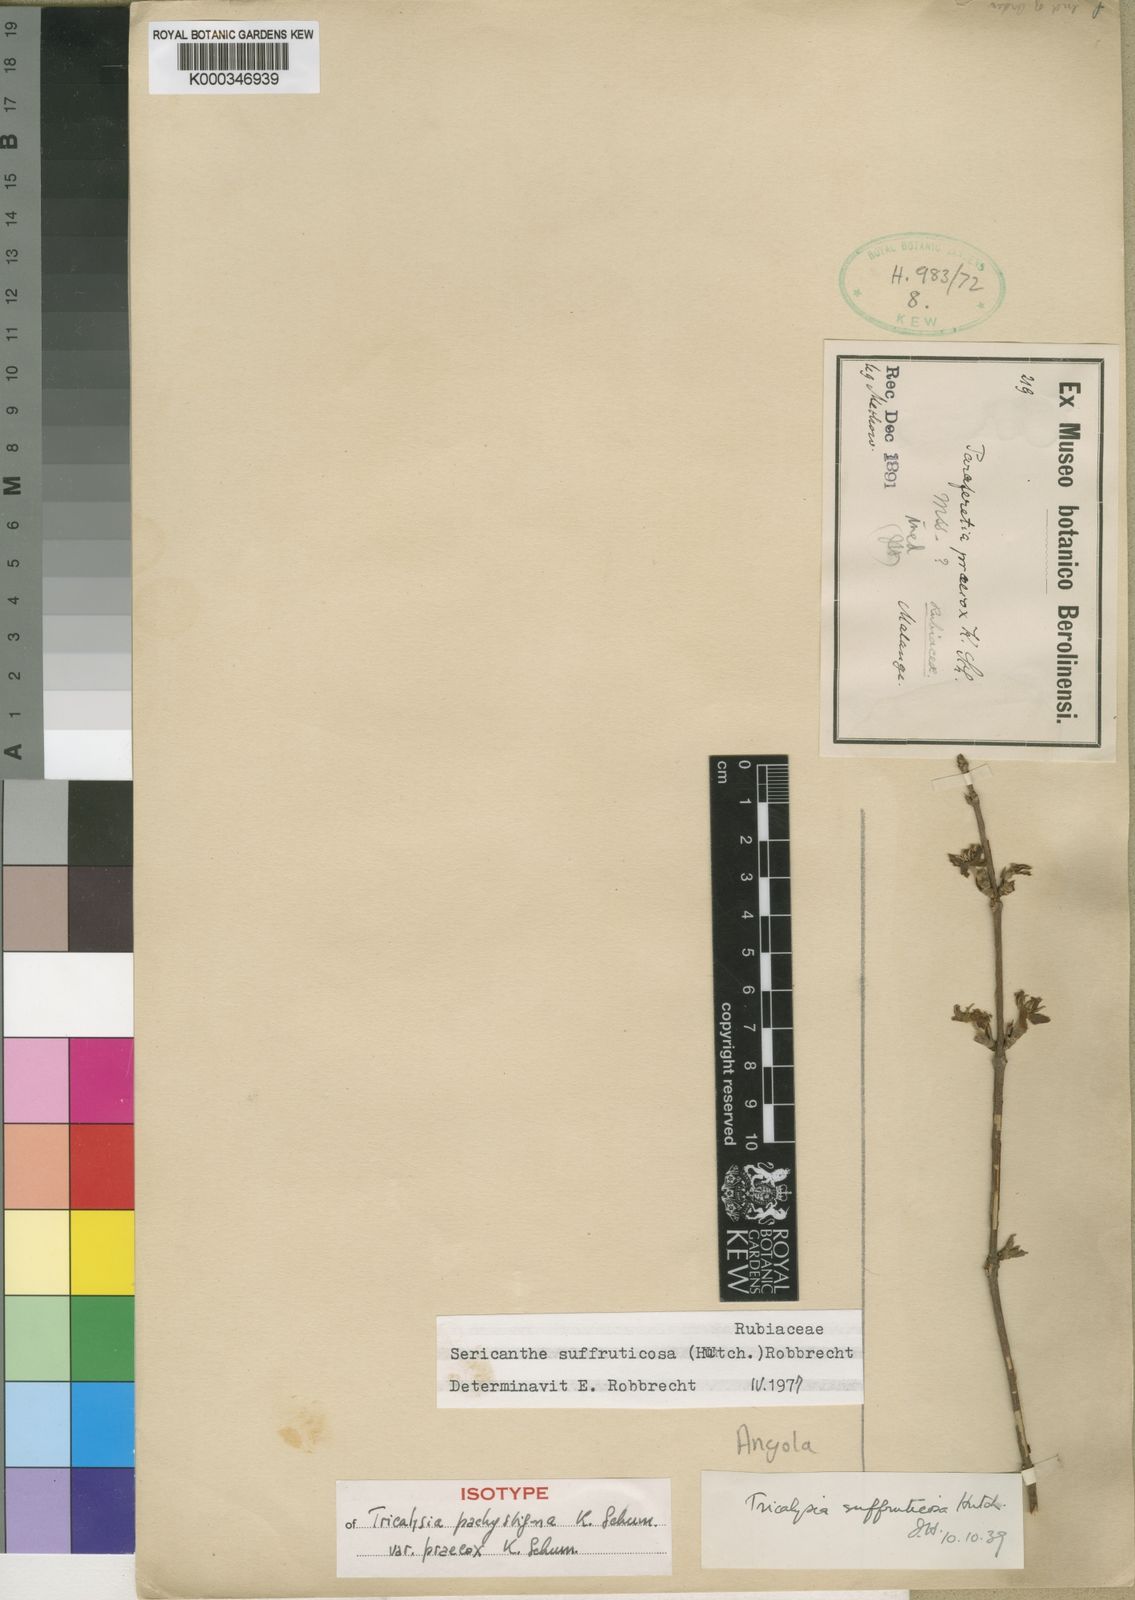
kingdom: Plantae
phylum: Tracheophyta
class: Magnoliopsida
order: Gentianales
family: Rubiaceae
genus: Sericanthe
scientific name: Sericanthe suffruticosa
